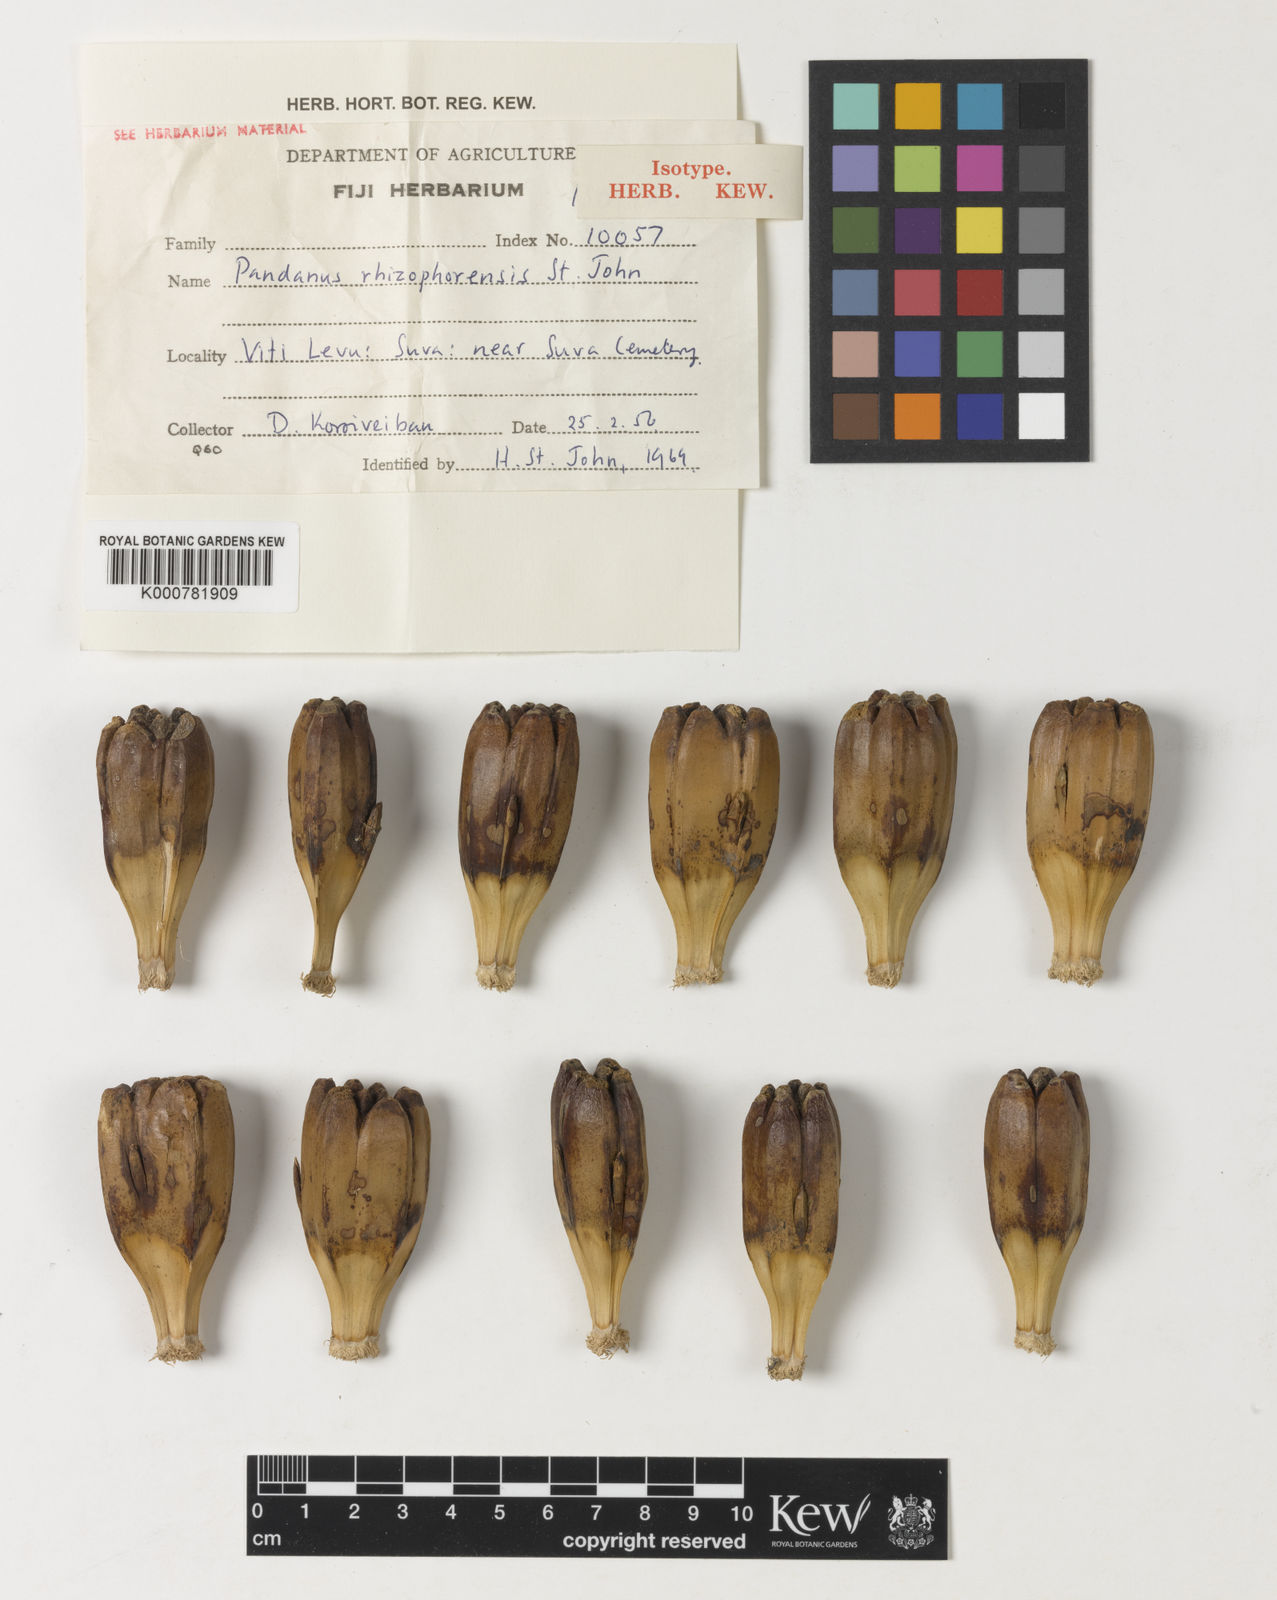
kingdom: Plantae
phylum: Tracheophyta
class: Liliopsida
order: Pandanales
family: Pandanaceae
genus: Pandanus
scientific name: Pandanus tectorius
